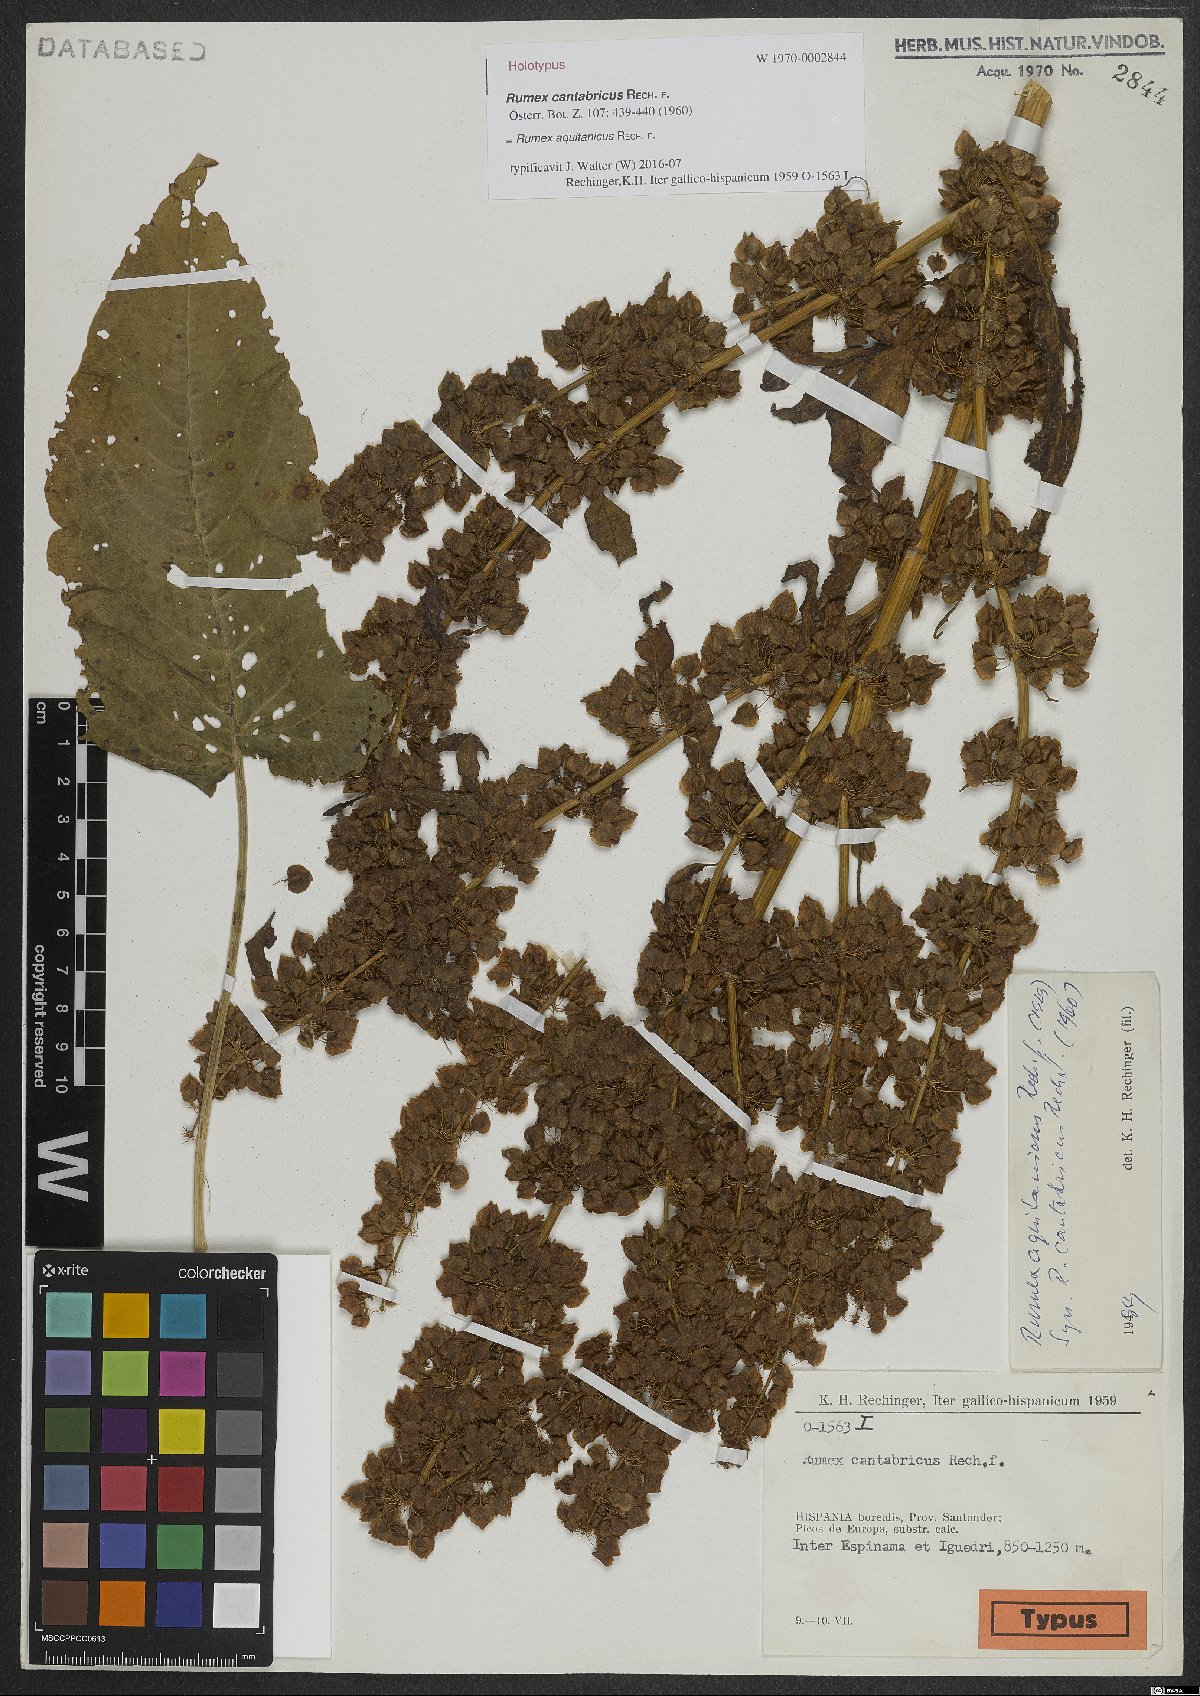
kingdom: Plantae
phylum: Tracheophyta
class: Magnoliopsida
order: Caryophyllales
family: Polygonaceae
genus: Rumex
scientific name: Rumex aquitanicus
